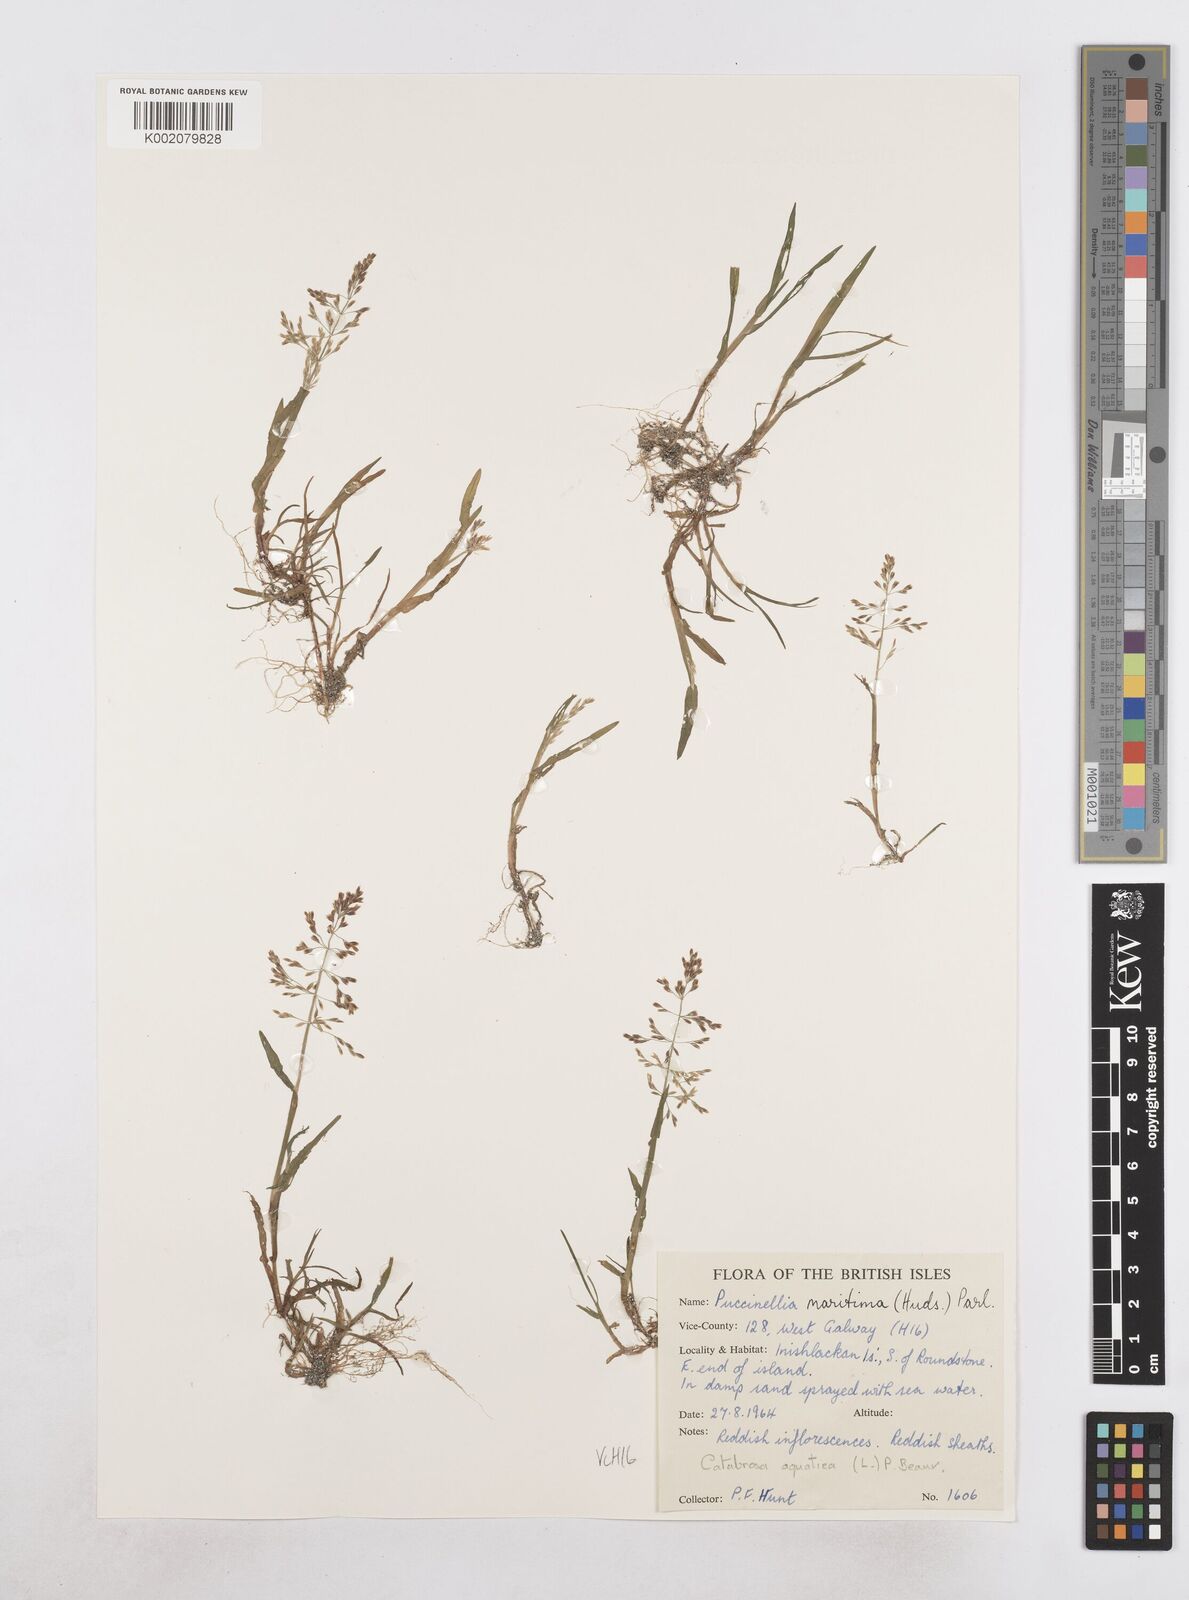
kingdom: Plantae
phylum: Tracheophyta
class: Liliopsida
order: Poales
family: Poaceae
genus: Catabrosa
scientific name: Catabrosa aquatica
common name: Whorl-grass
